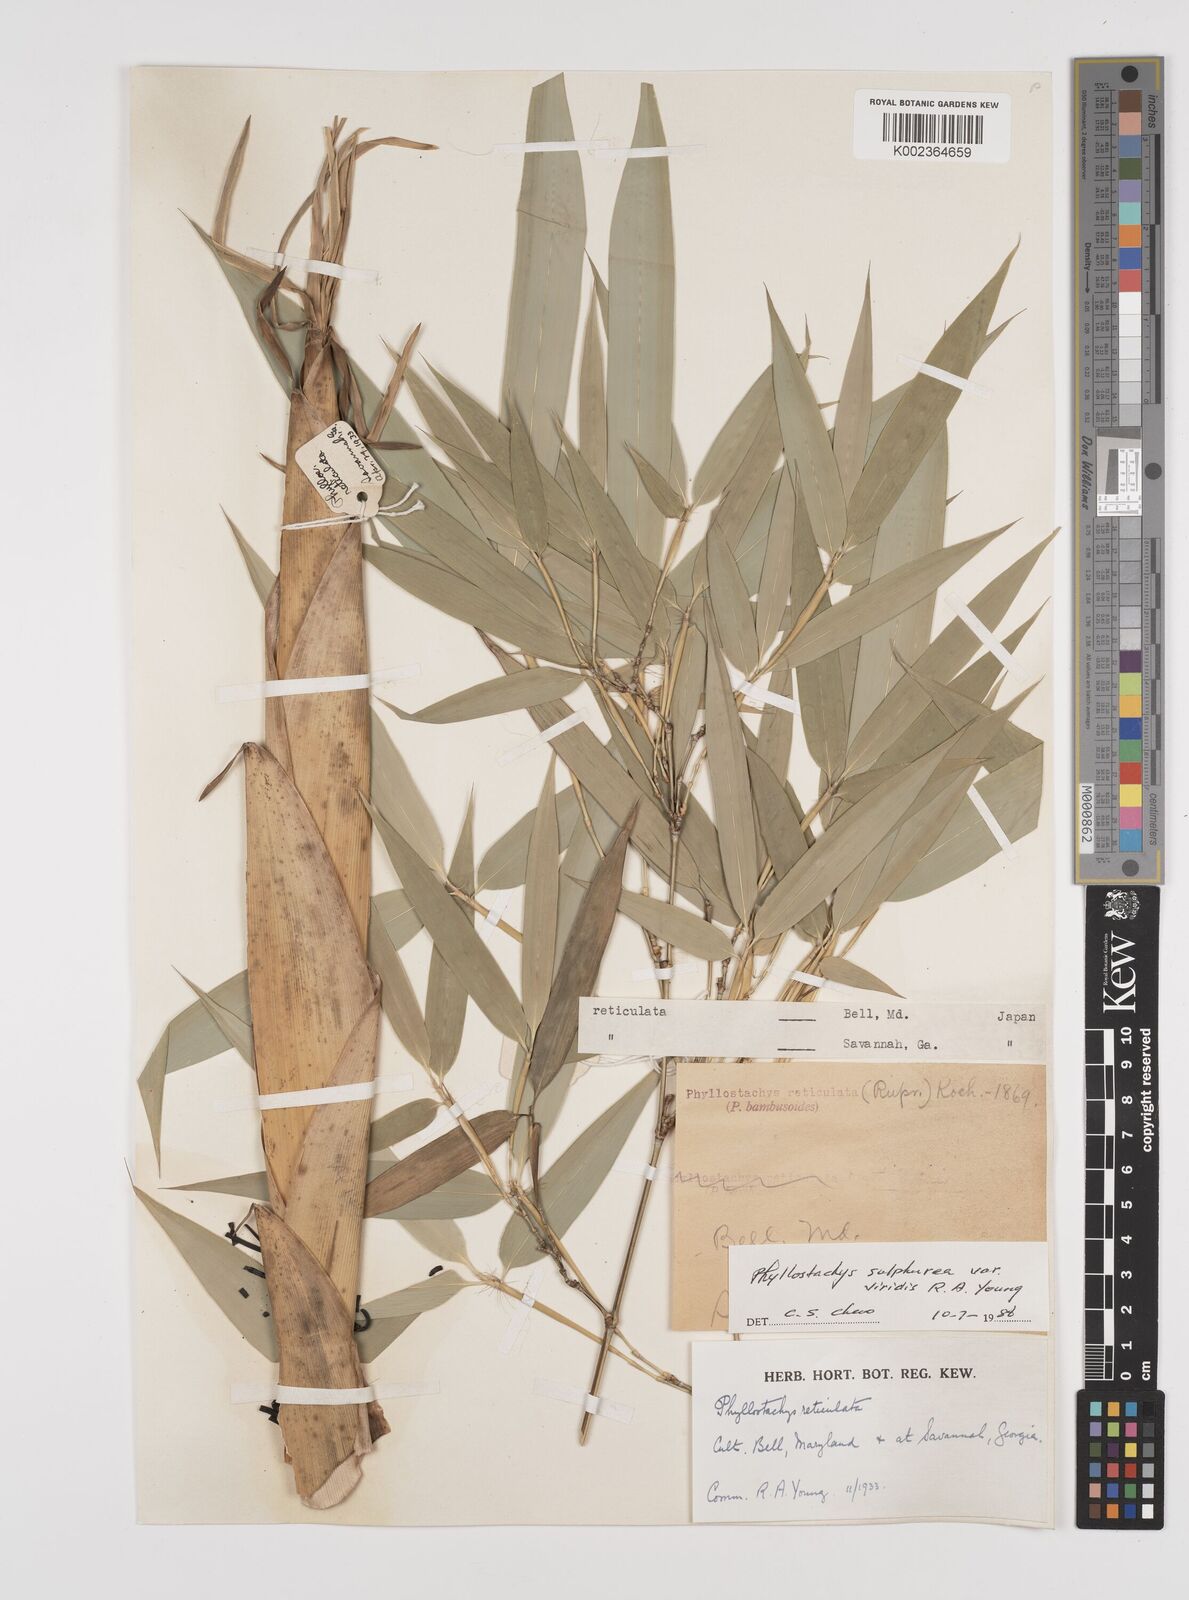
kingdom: Plantae
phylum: Tracheophyta
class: Liliopsida
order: Poales
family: Poaceae
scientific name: Poaceae
